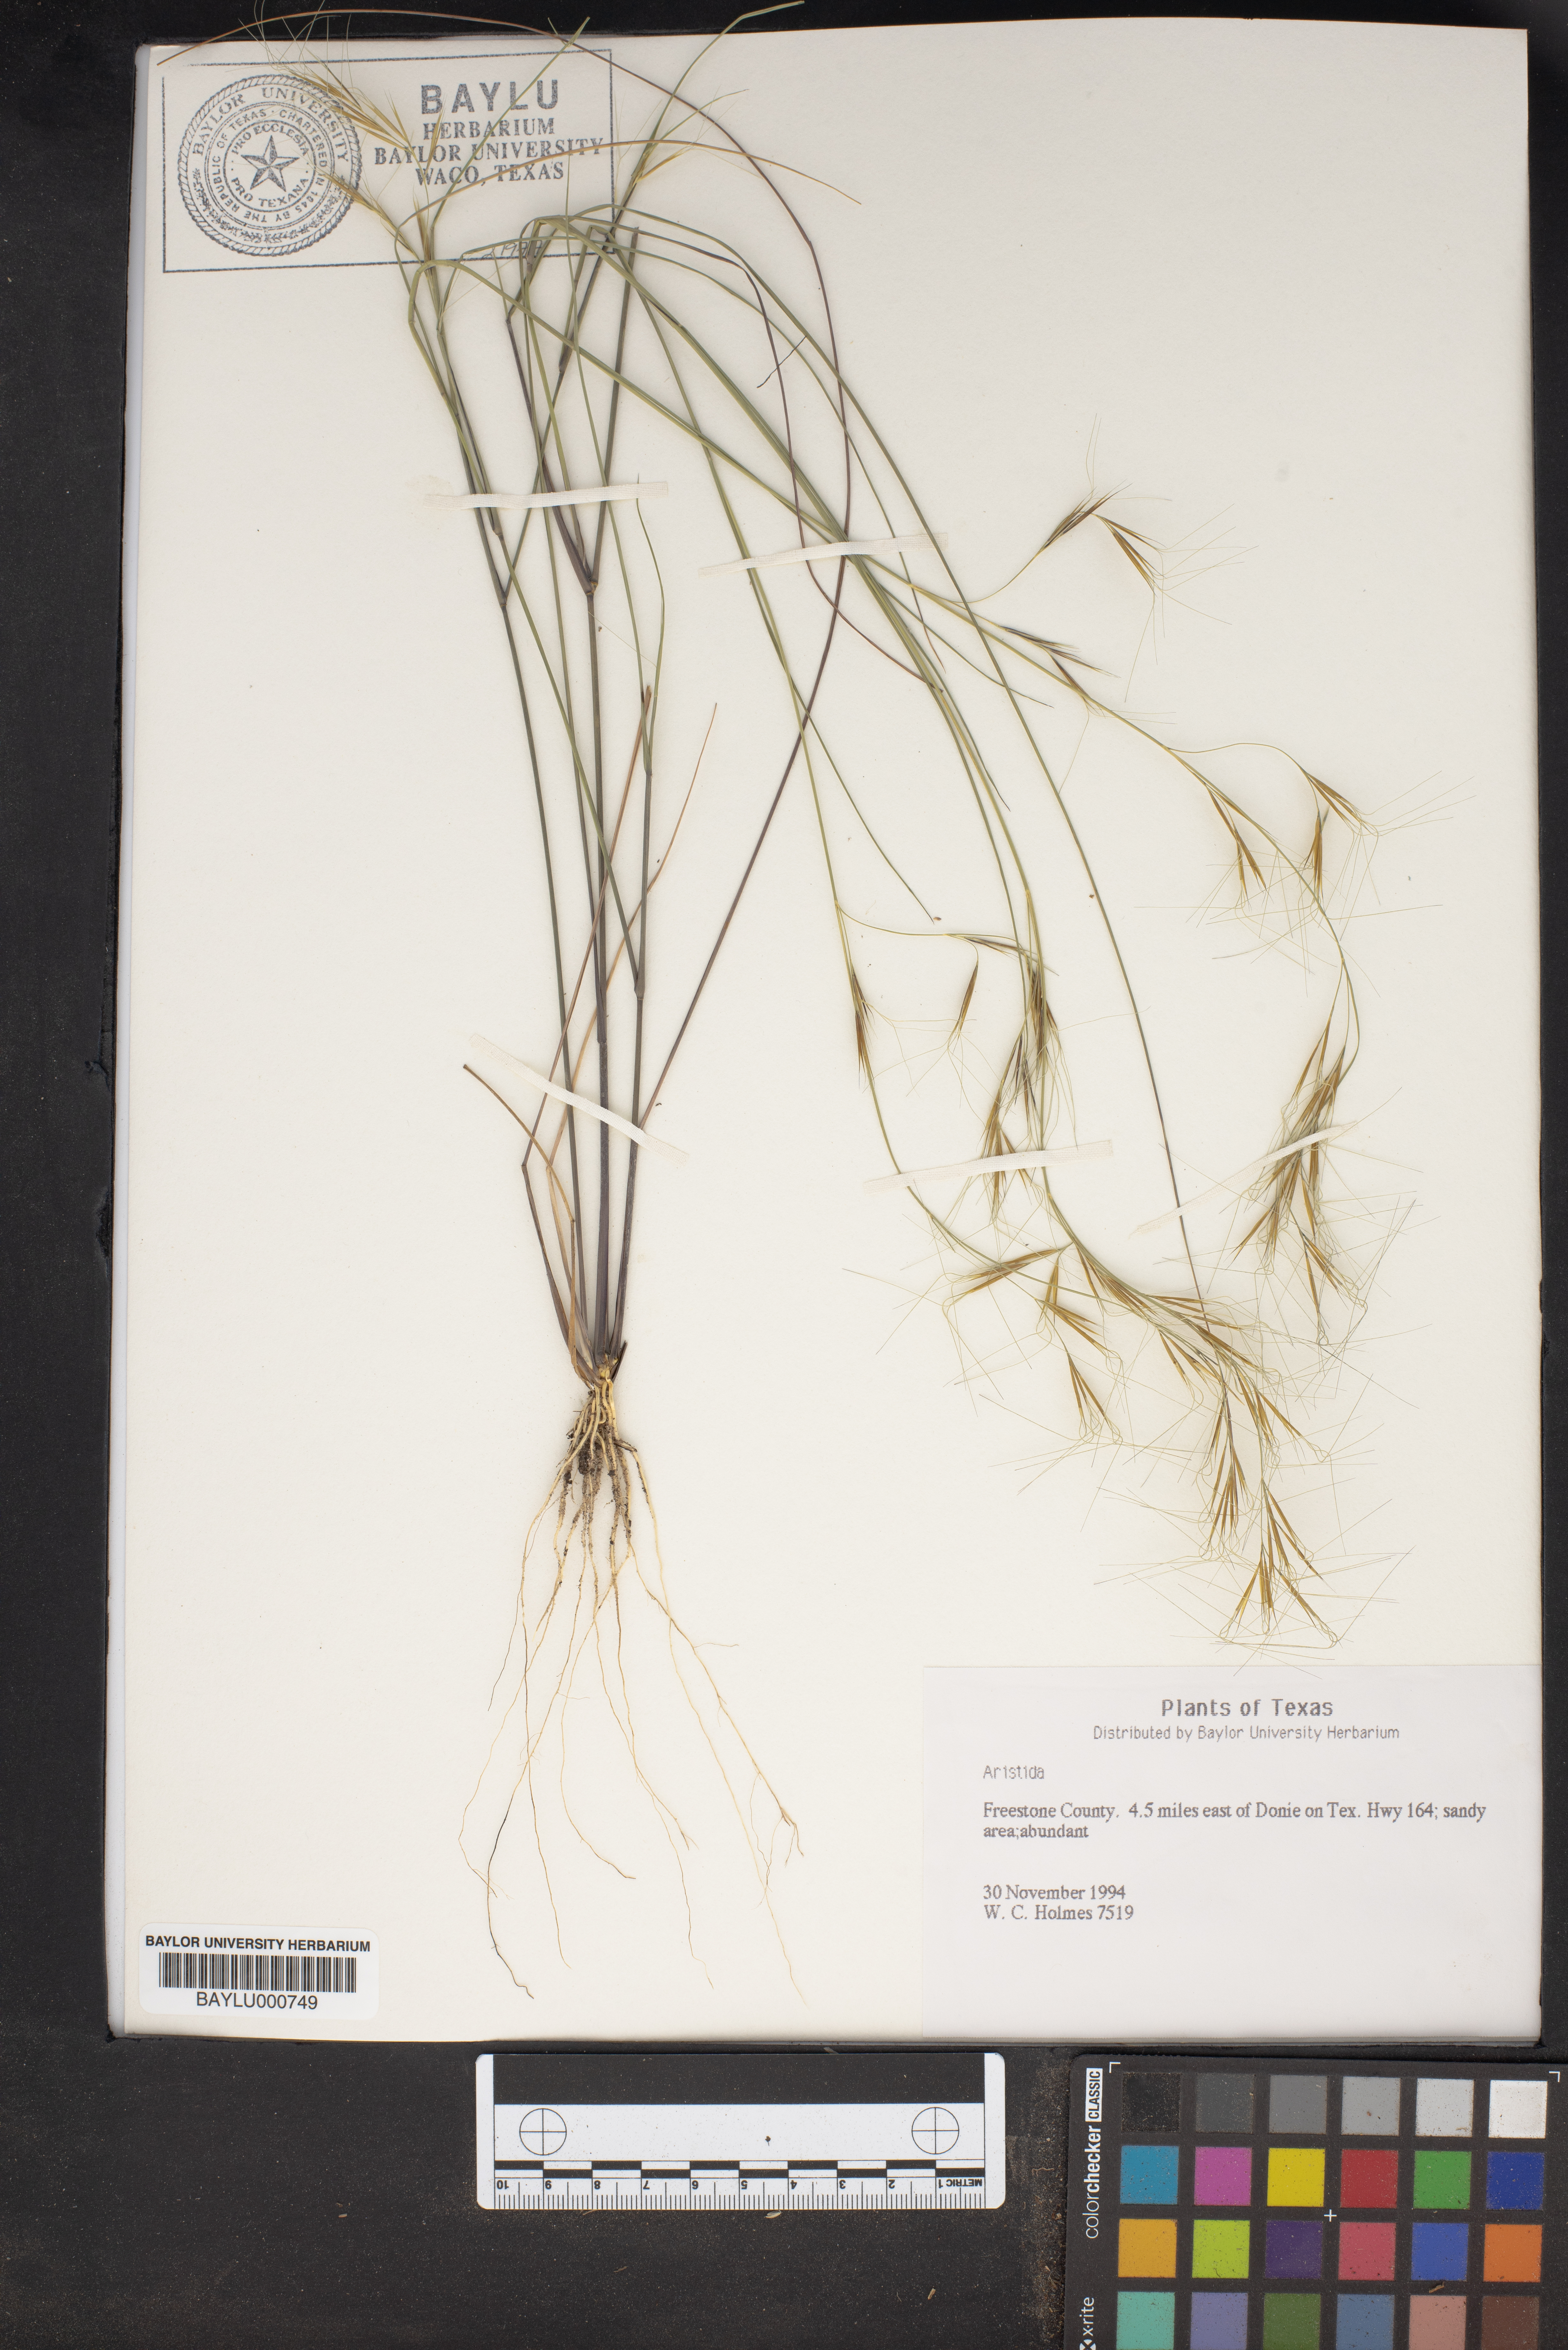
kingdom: Plantae
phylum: Tracheophyta
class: Liliopsida
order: Poales
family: Poaceae
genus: Aristida
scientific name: Aristida
